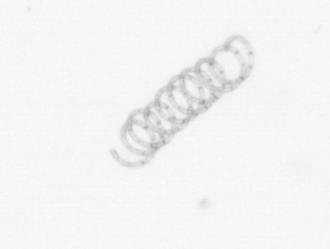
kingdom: Chromista
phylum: Ochrophyta
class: Bacillariophyceae
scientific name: Bacillariophyceae
